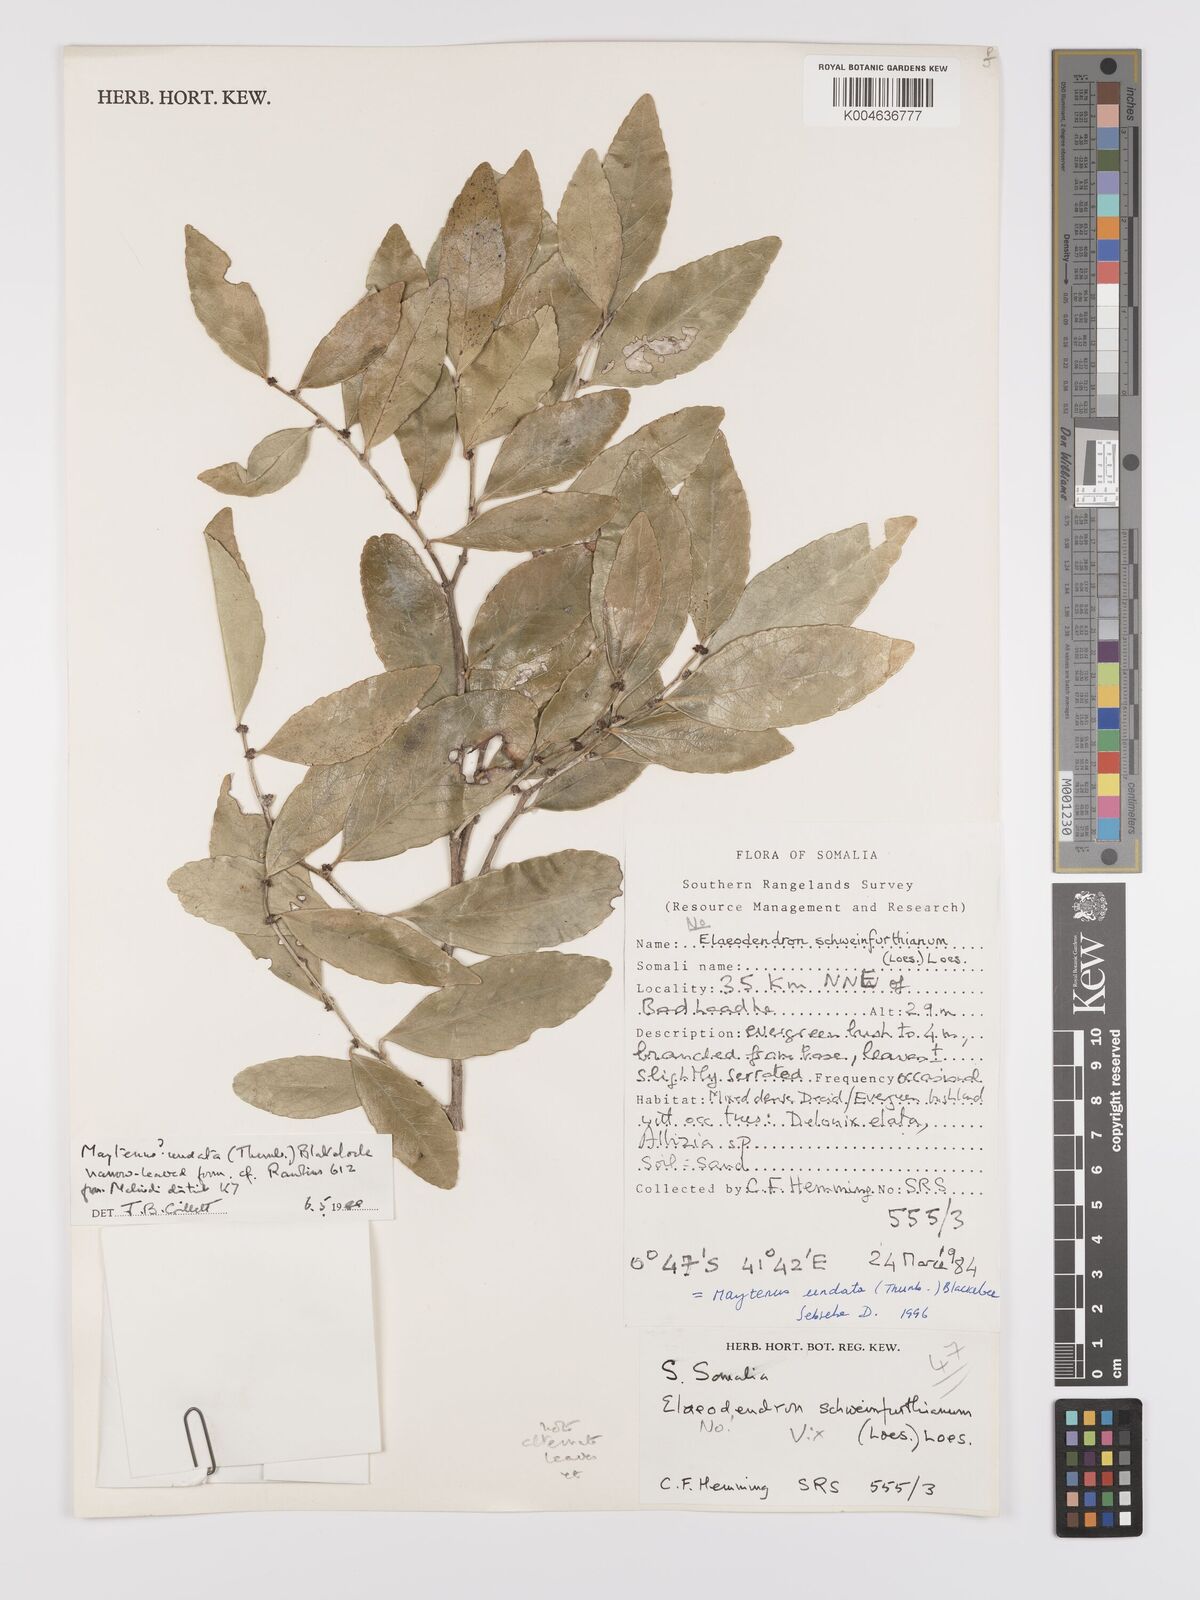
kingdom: Plantae
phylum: Tracheophyta
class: Magnoliopsida
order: Celastrales
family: Celastraceae
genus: Gymnosporia
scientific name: Gymnosporia undata
